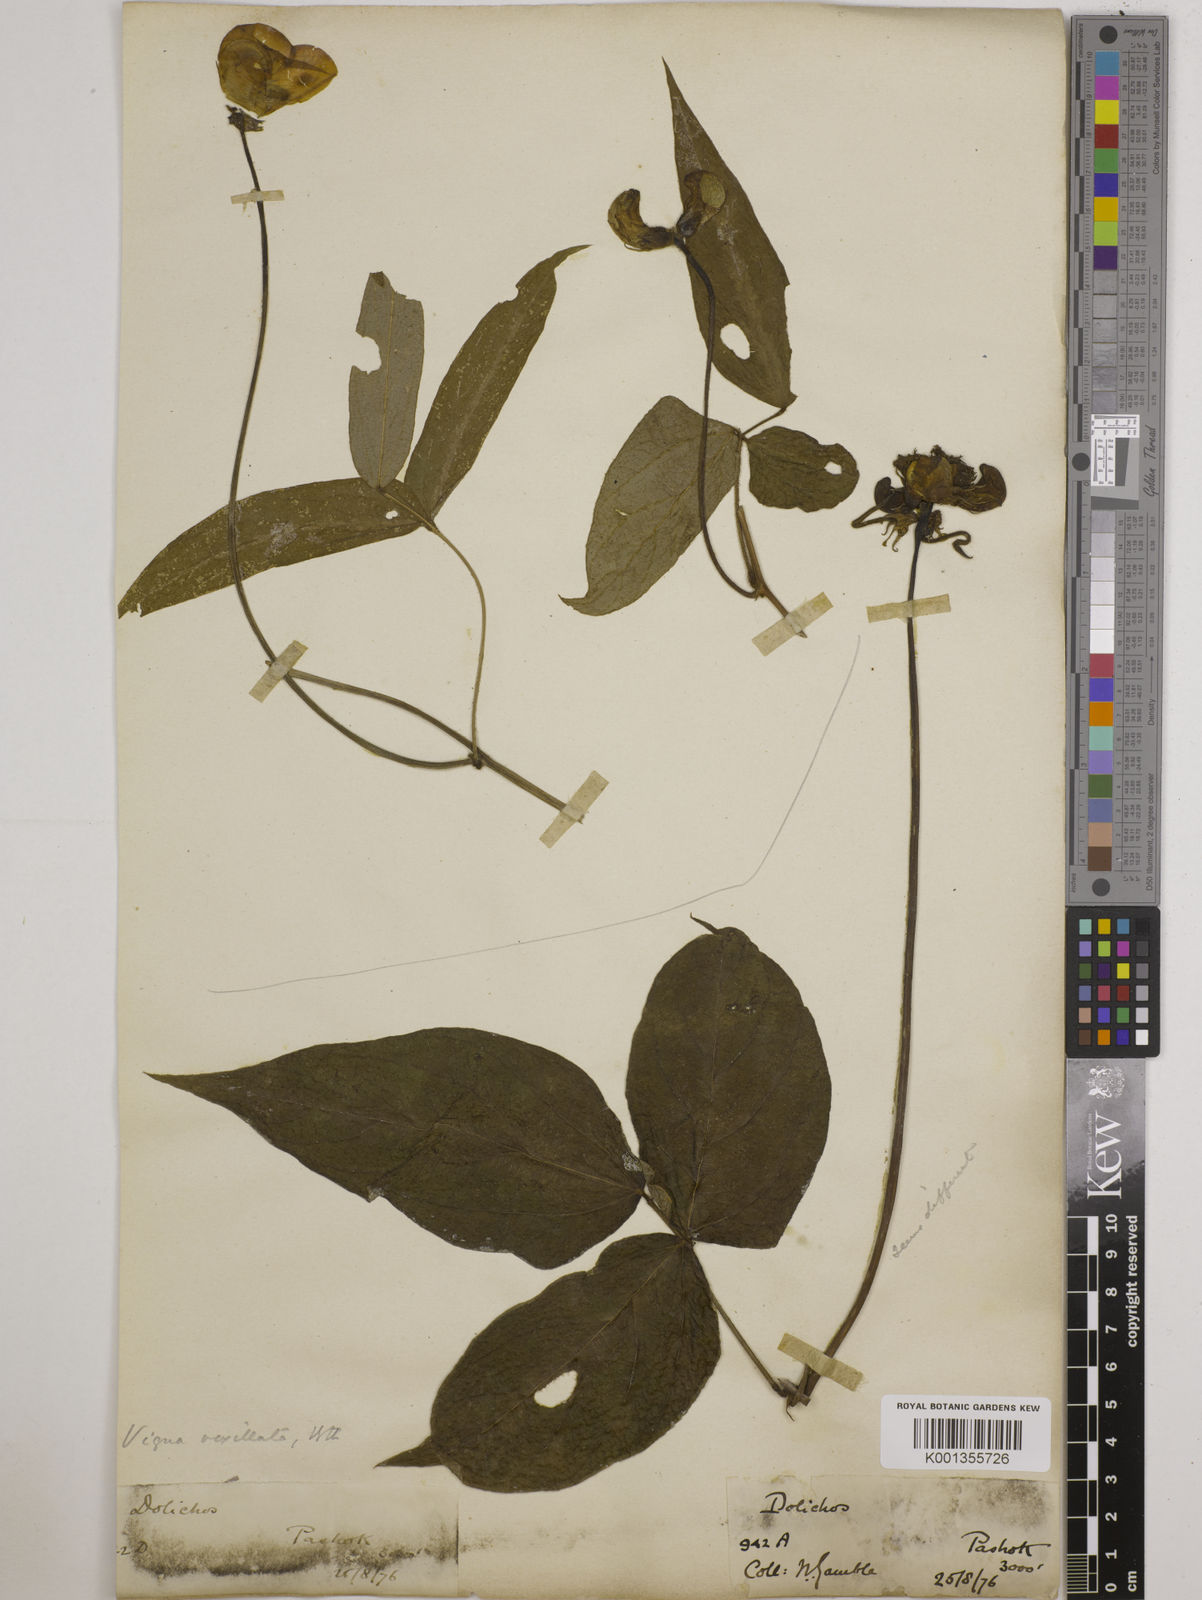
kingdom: Plantae
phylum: Tracheophyta
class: Magnoliopsida
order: Fabales
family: Fabaceae
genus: Vigna
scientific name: Vigna vexillata
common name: Zombi pea
